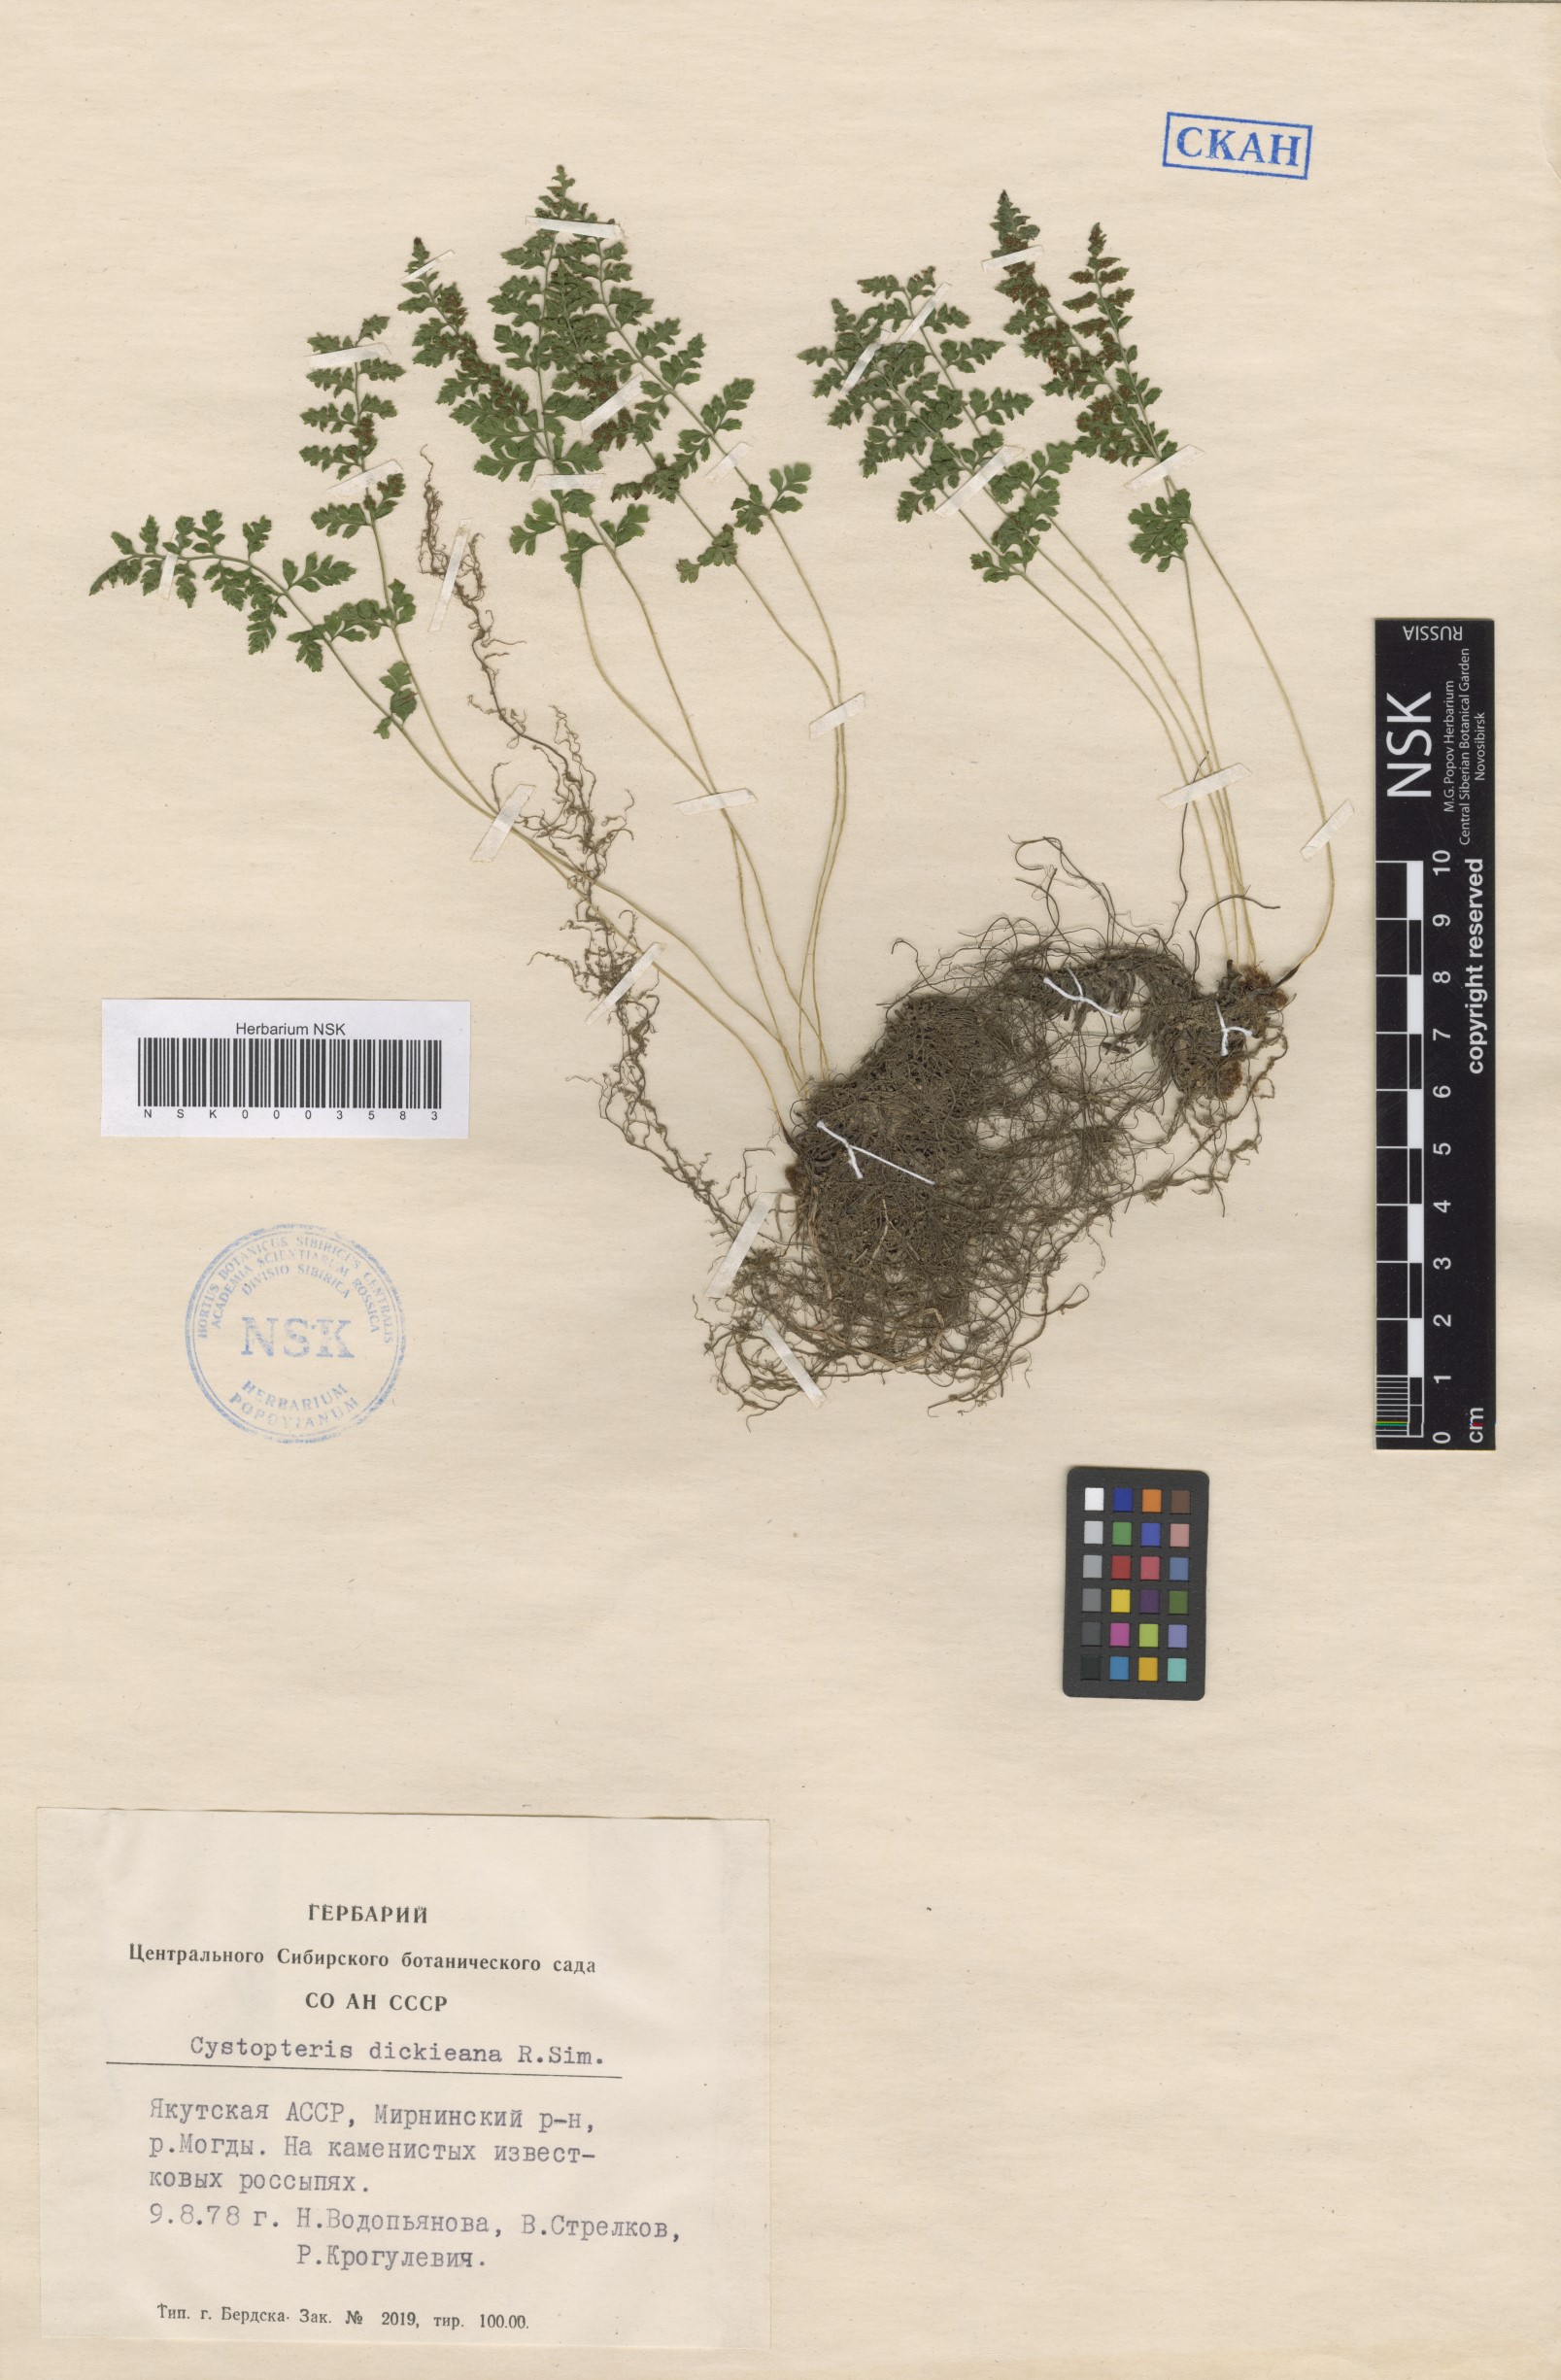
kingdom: Plantae
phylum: Tracheophyta
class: Polypodiopsida
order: Polypodiales
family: Cystopteridaceae
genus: Cystopteris
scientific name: Cystopteris dickieana
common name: Dickie's bladder-fern
